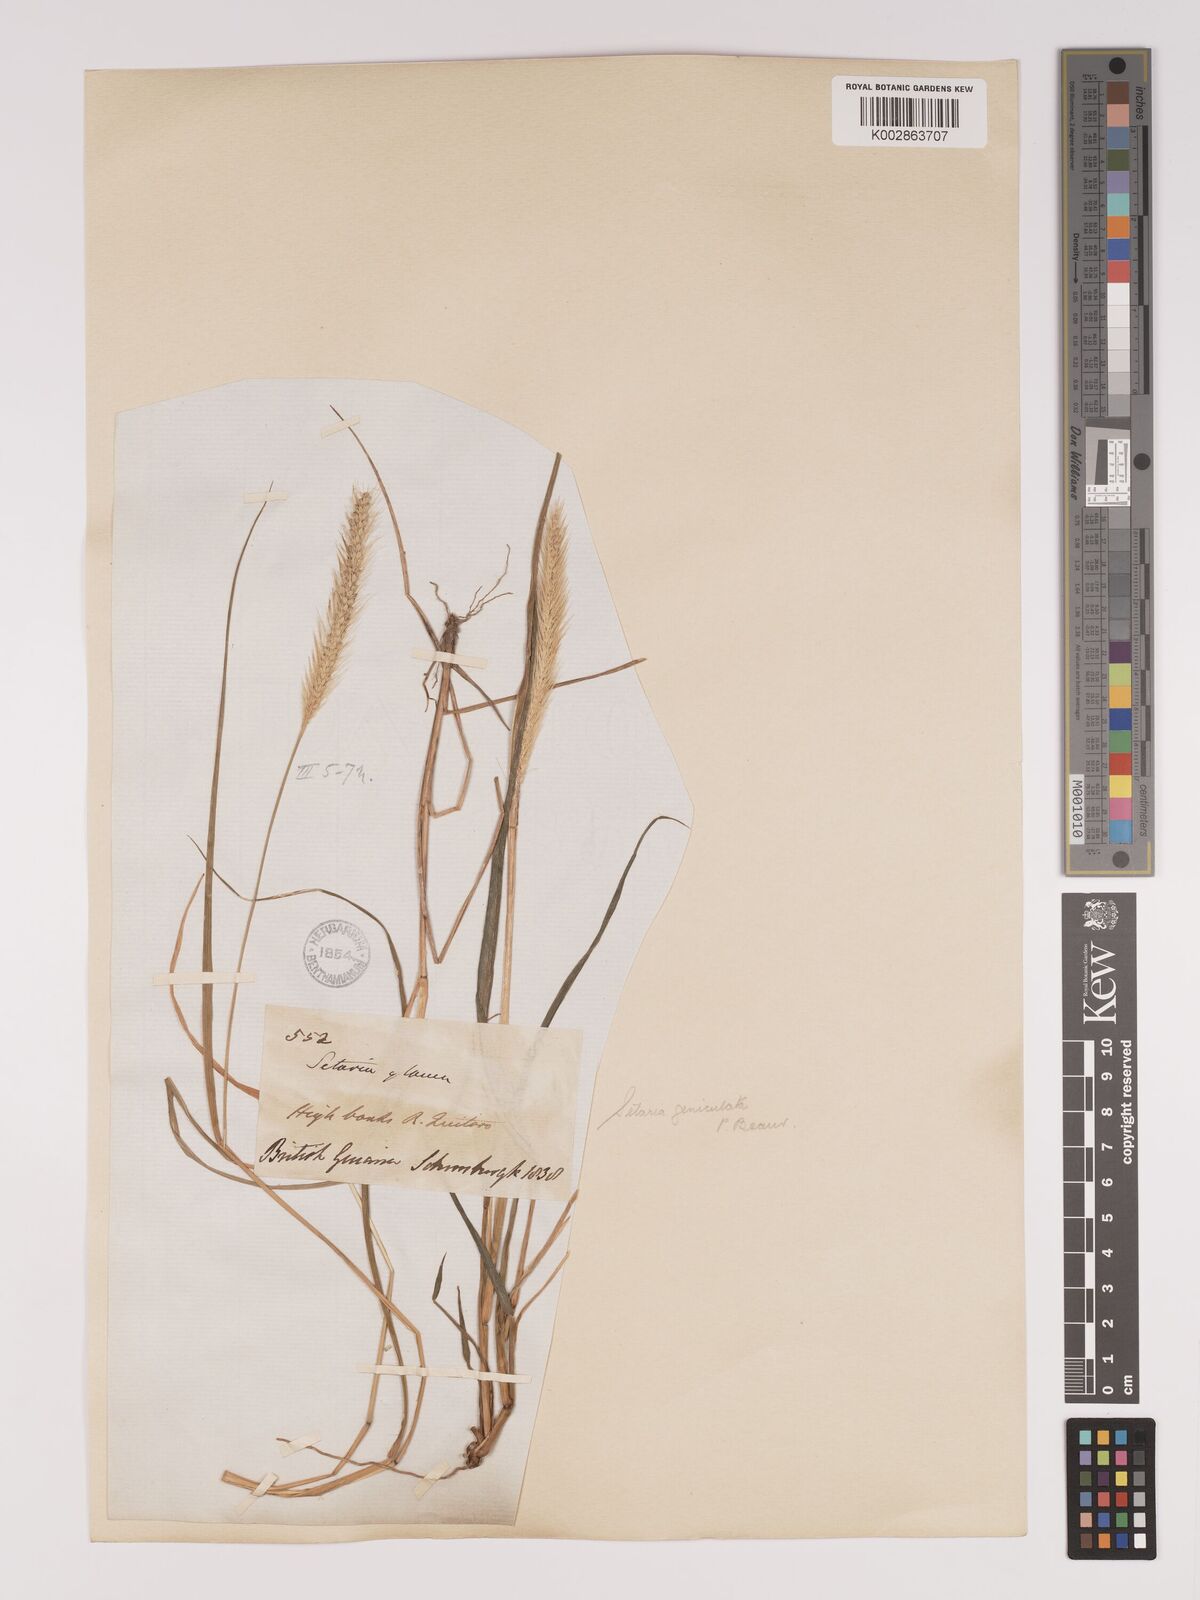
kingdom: Plantae
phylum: Tracheophyta
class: Liliopsida
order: Poales
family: Poaceae
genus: Setaria
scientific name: Setaria parviflora
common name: Knotroot bristle-grass
